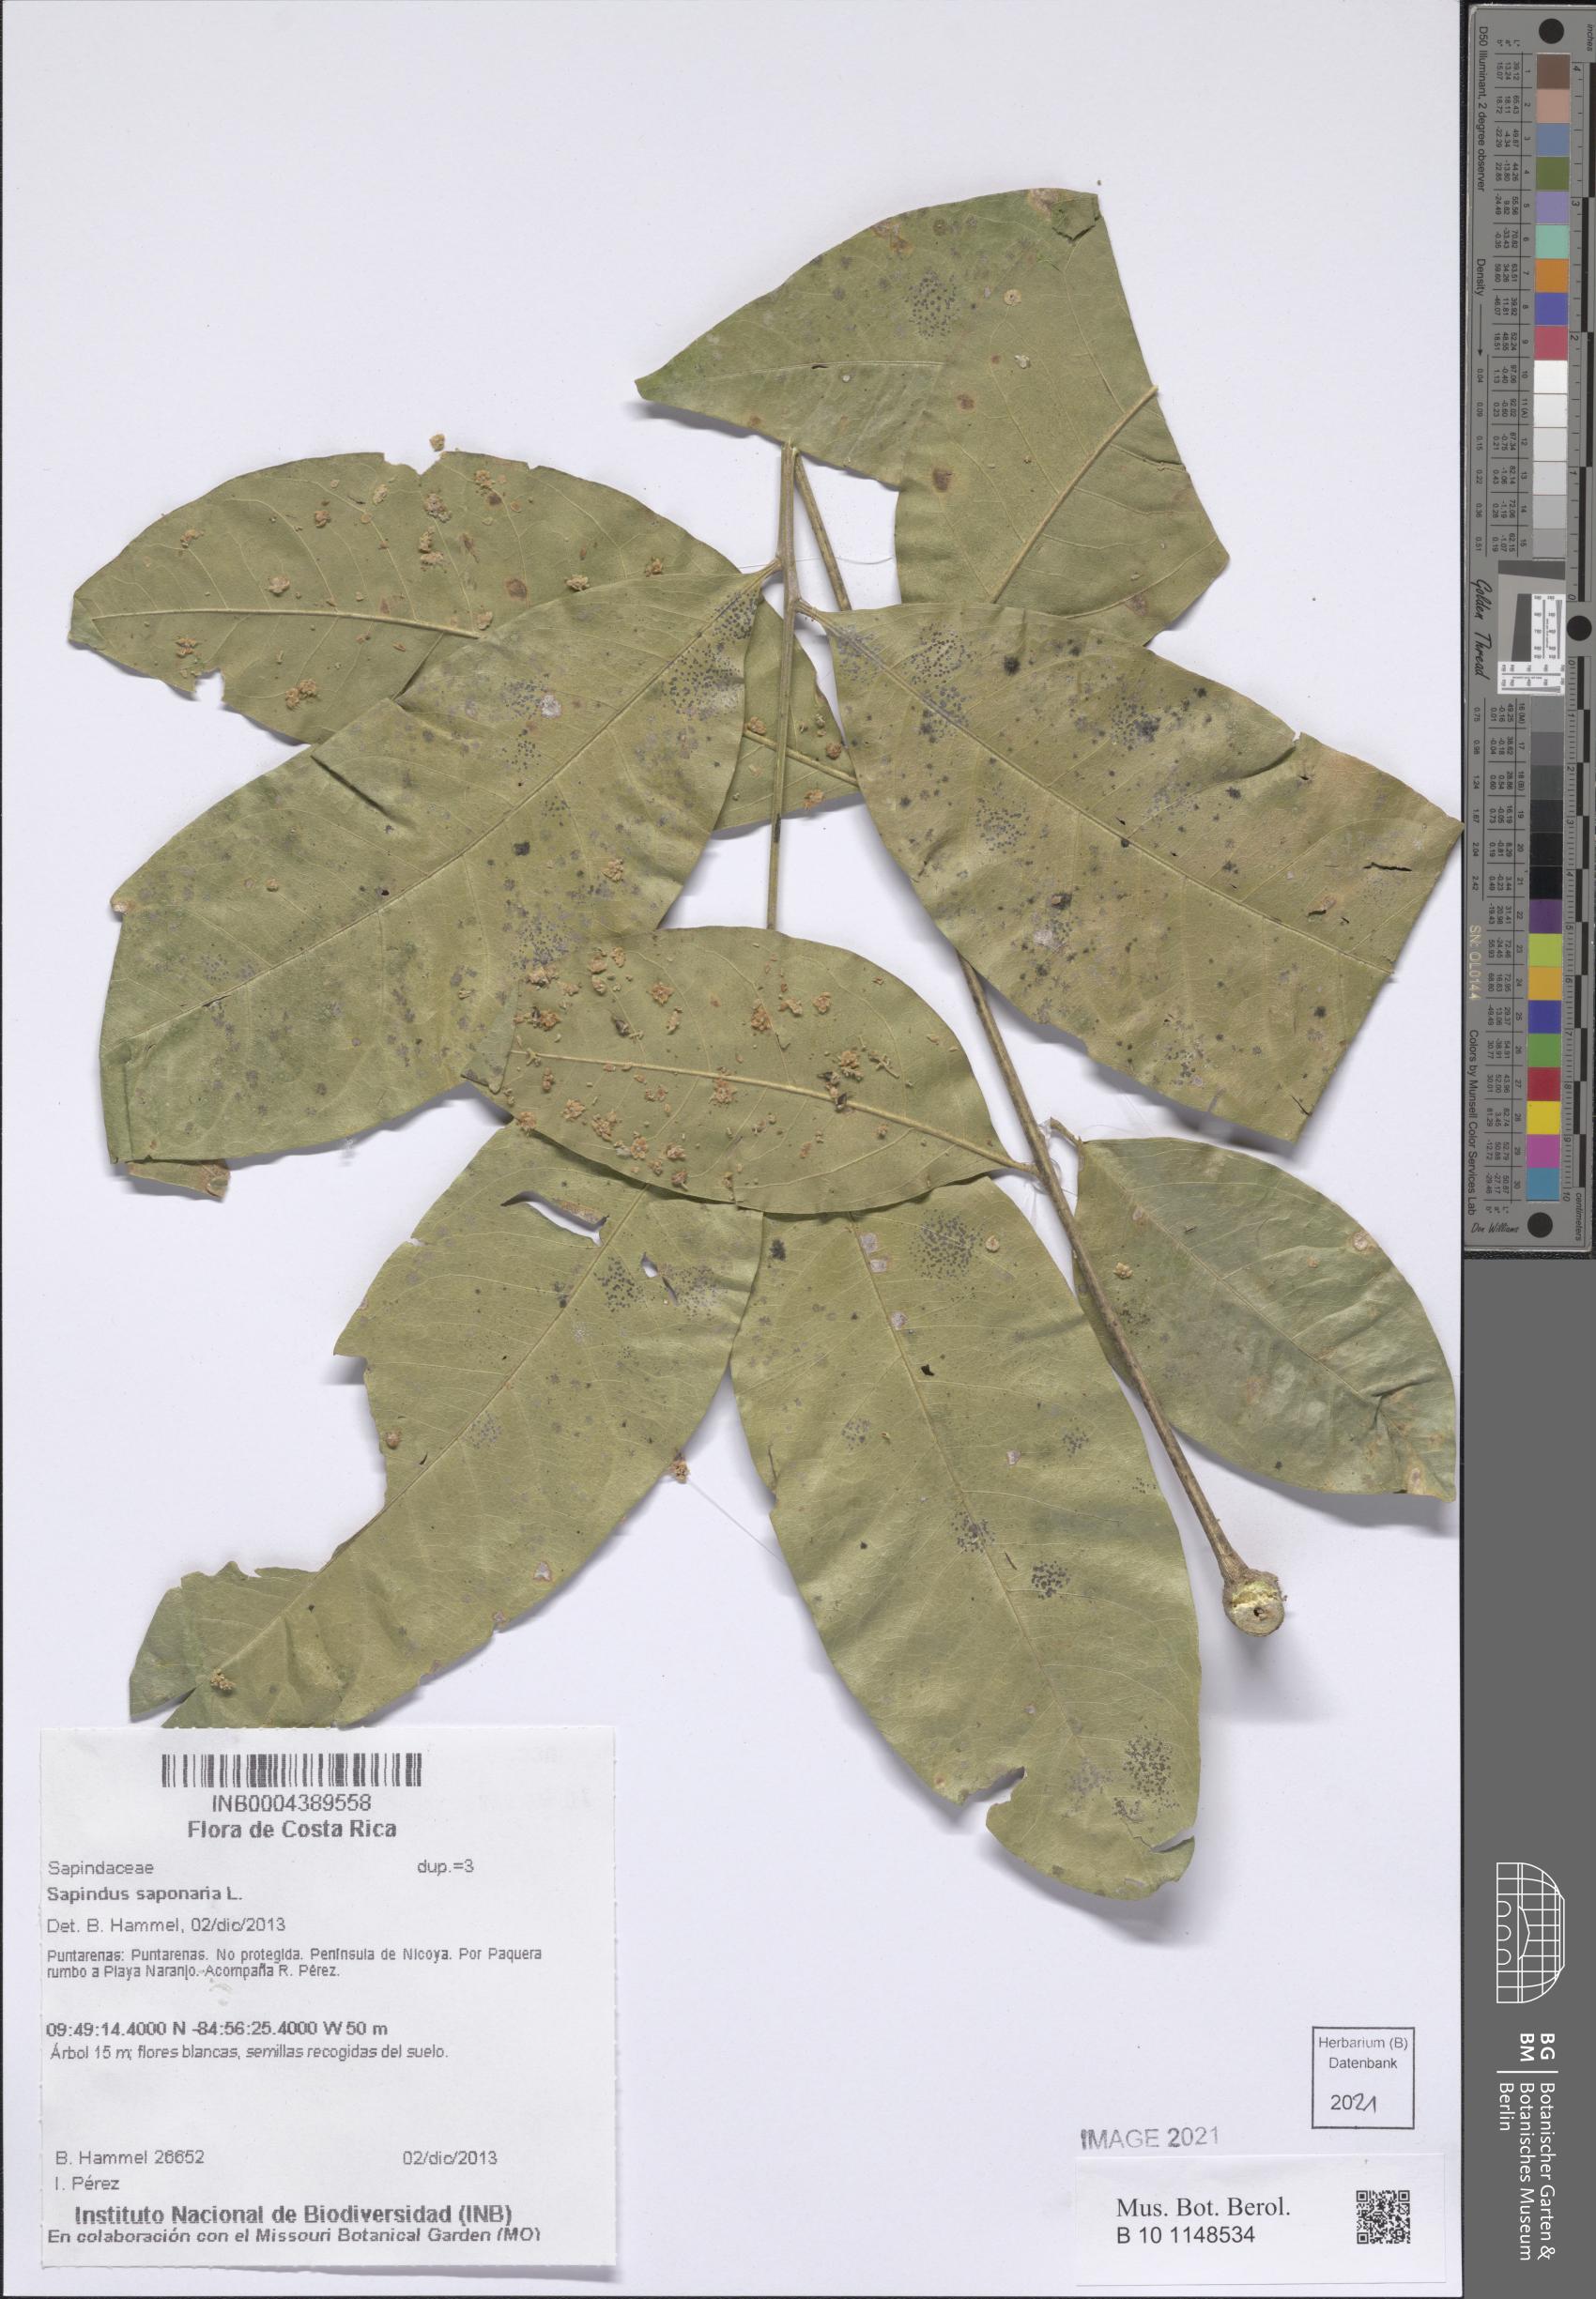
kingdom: Plantae
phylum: Tracheophyta
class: Magnoliopsida
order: Sapindales
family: Sapindaceae
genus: Sapindus
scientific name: Sapindus saponaria
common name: Wingleaf soapberry
